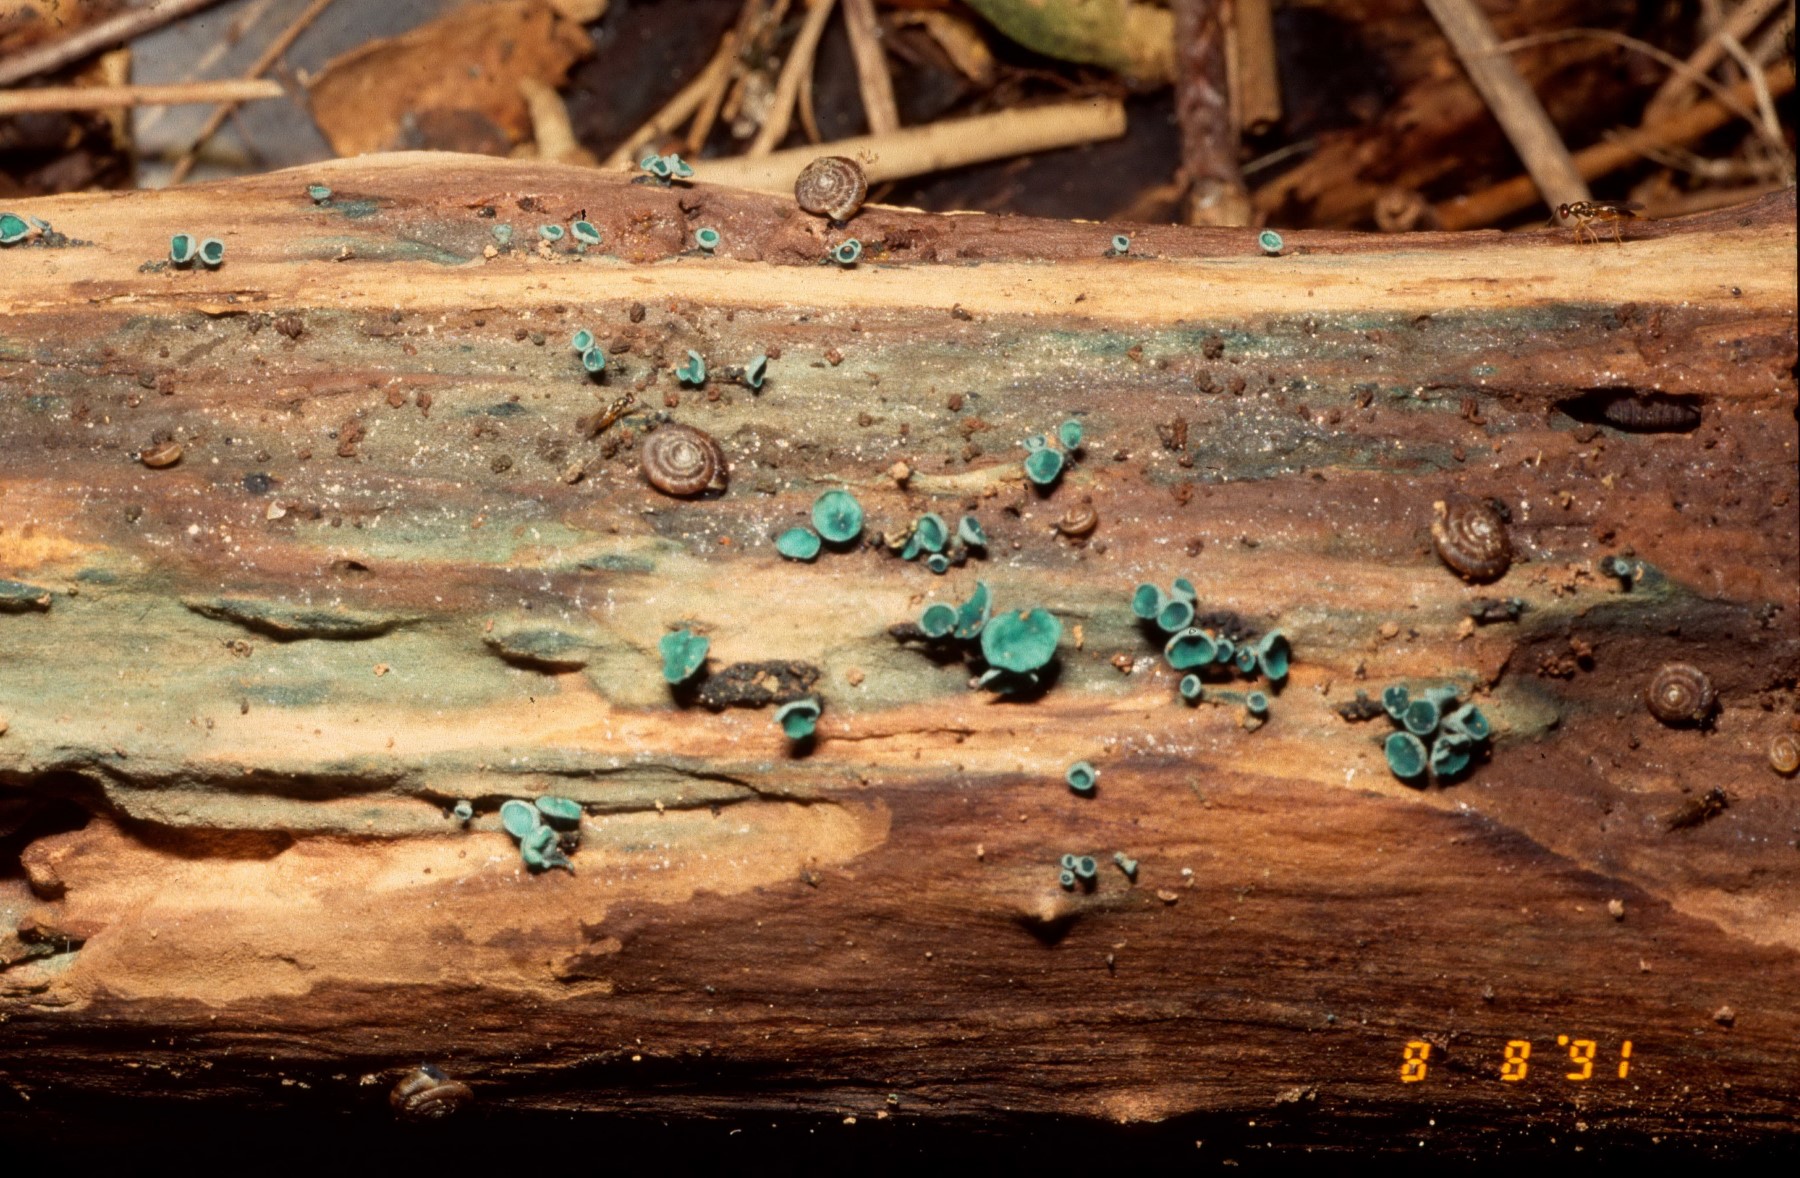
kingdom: Fungi
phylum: Ascomycota
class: Leotiomycetes
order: Helotiales
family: Chlorociboriaceae
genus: Chlorociboria
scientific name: Chlorociboria aeruginascens
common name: almindelig grønskive
